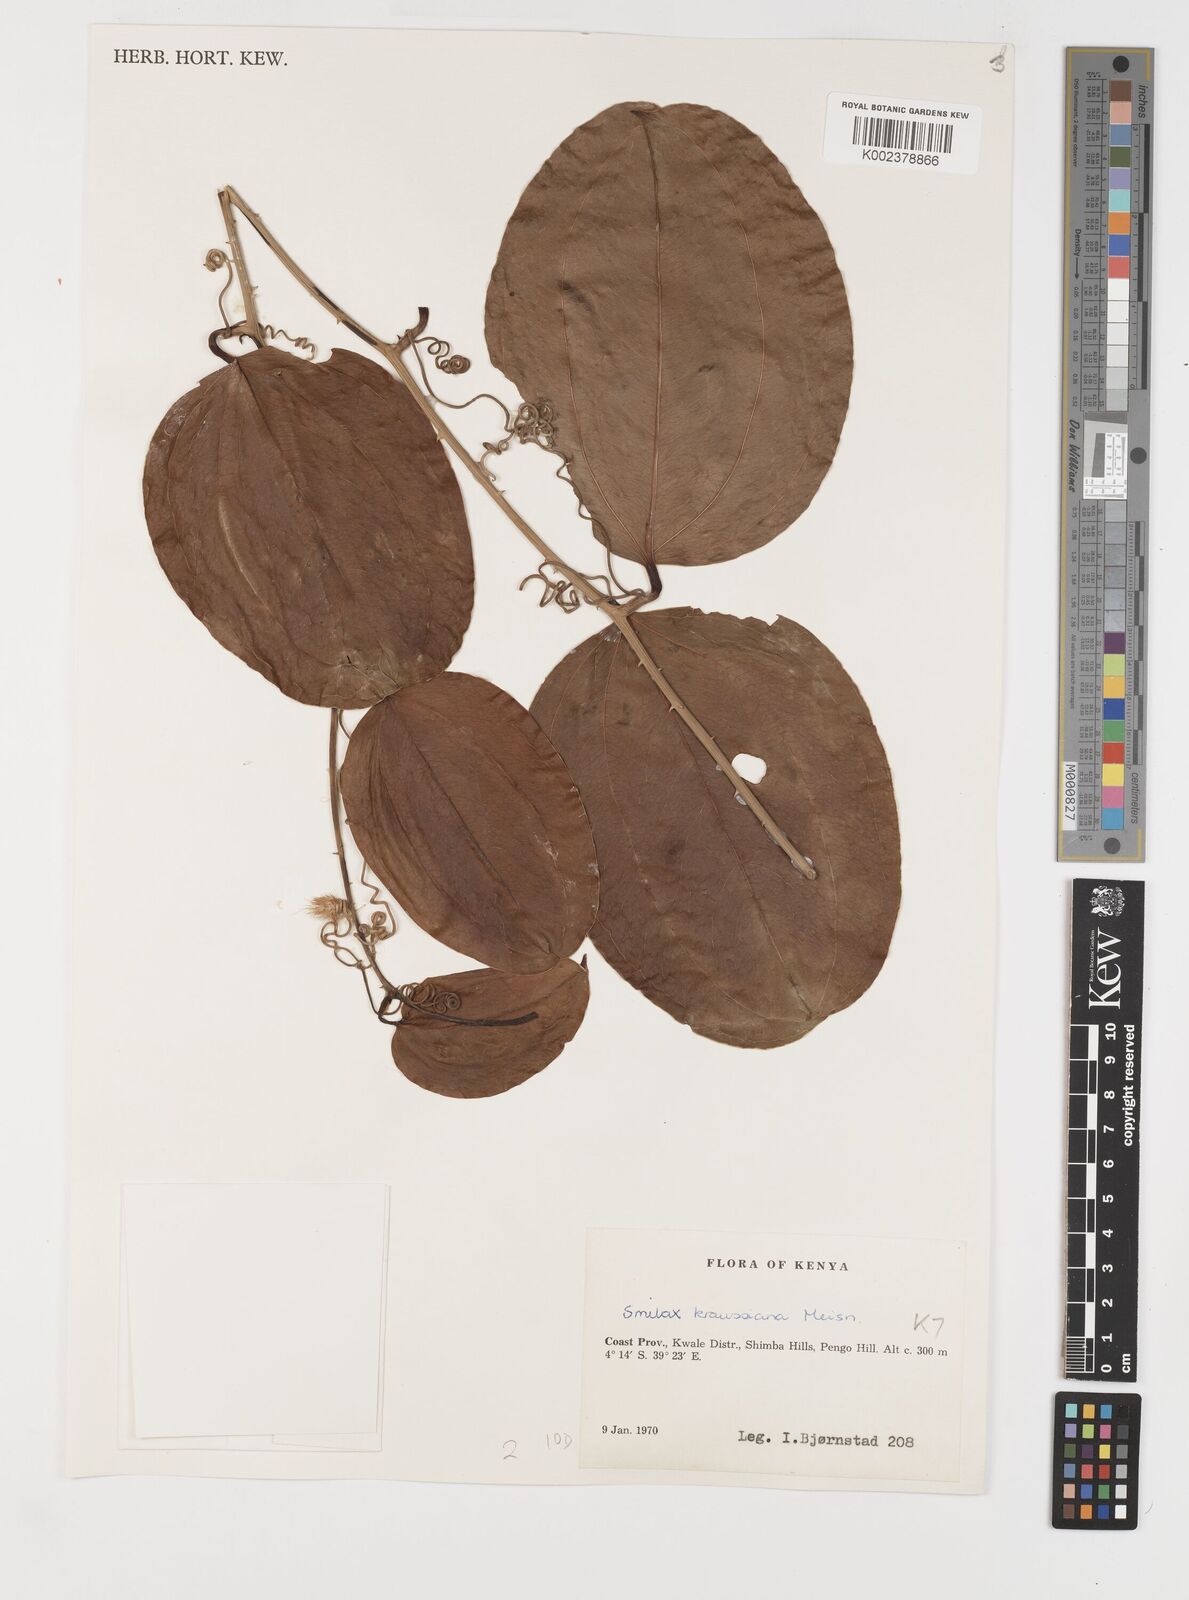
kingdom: Plantae
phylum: Tracheophyta
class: Liliopsida
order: Liliales
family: Smilacaceae
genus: Smilax
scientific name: Smilax anceps
